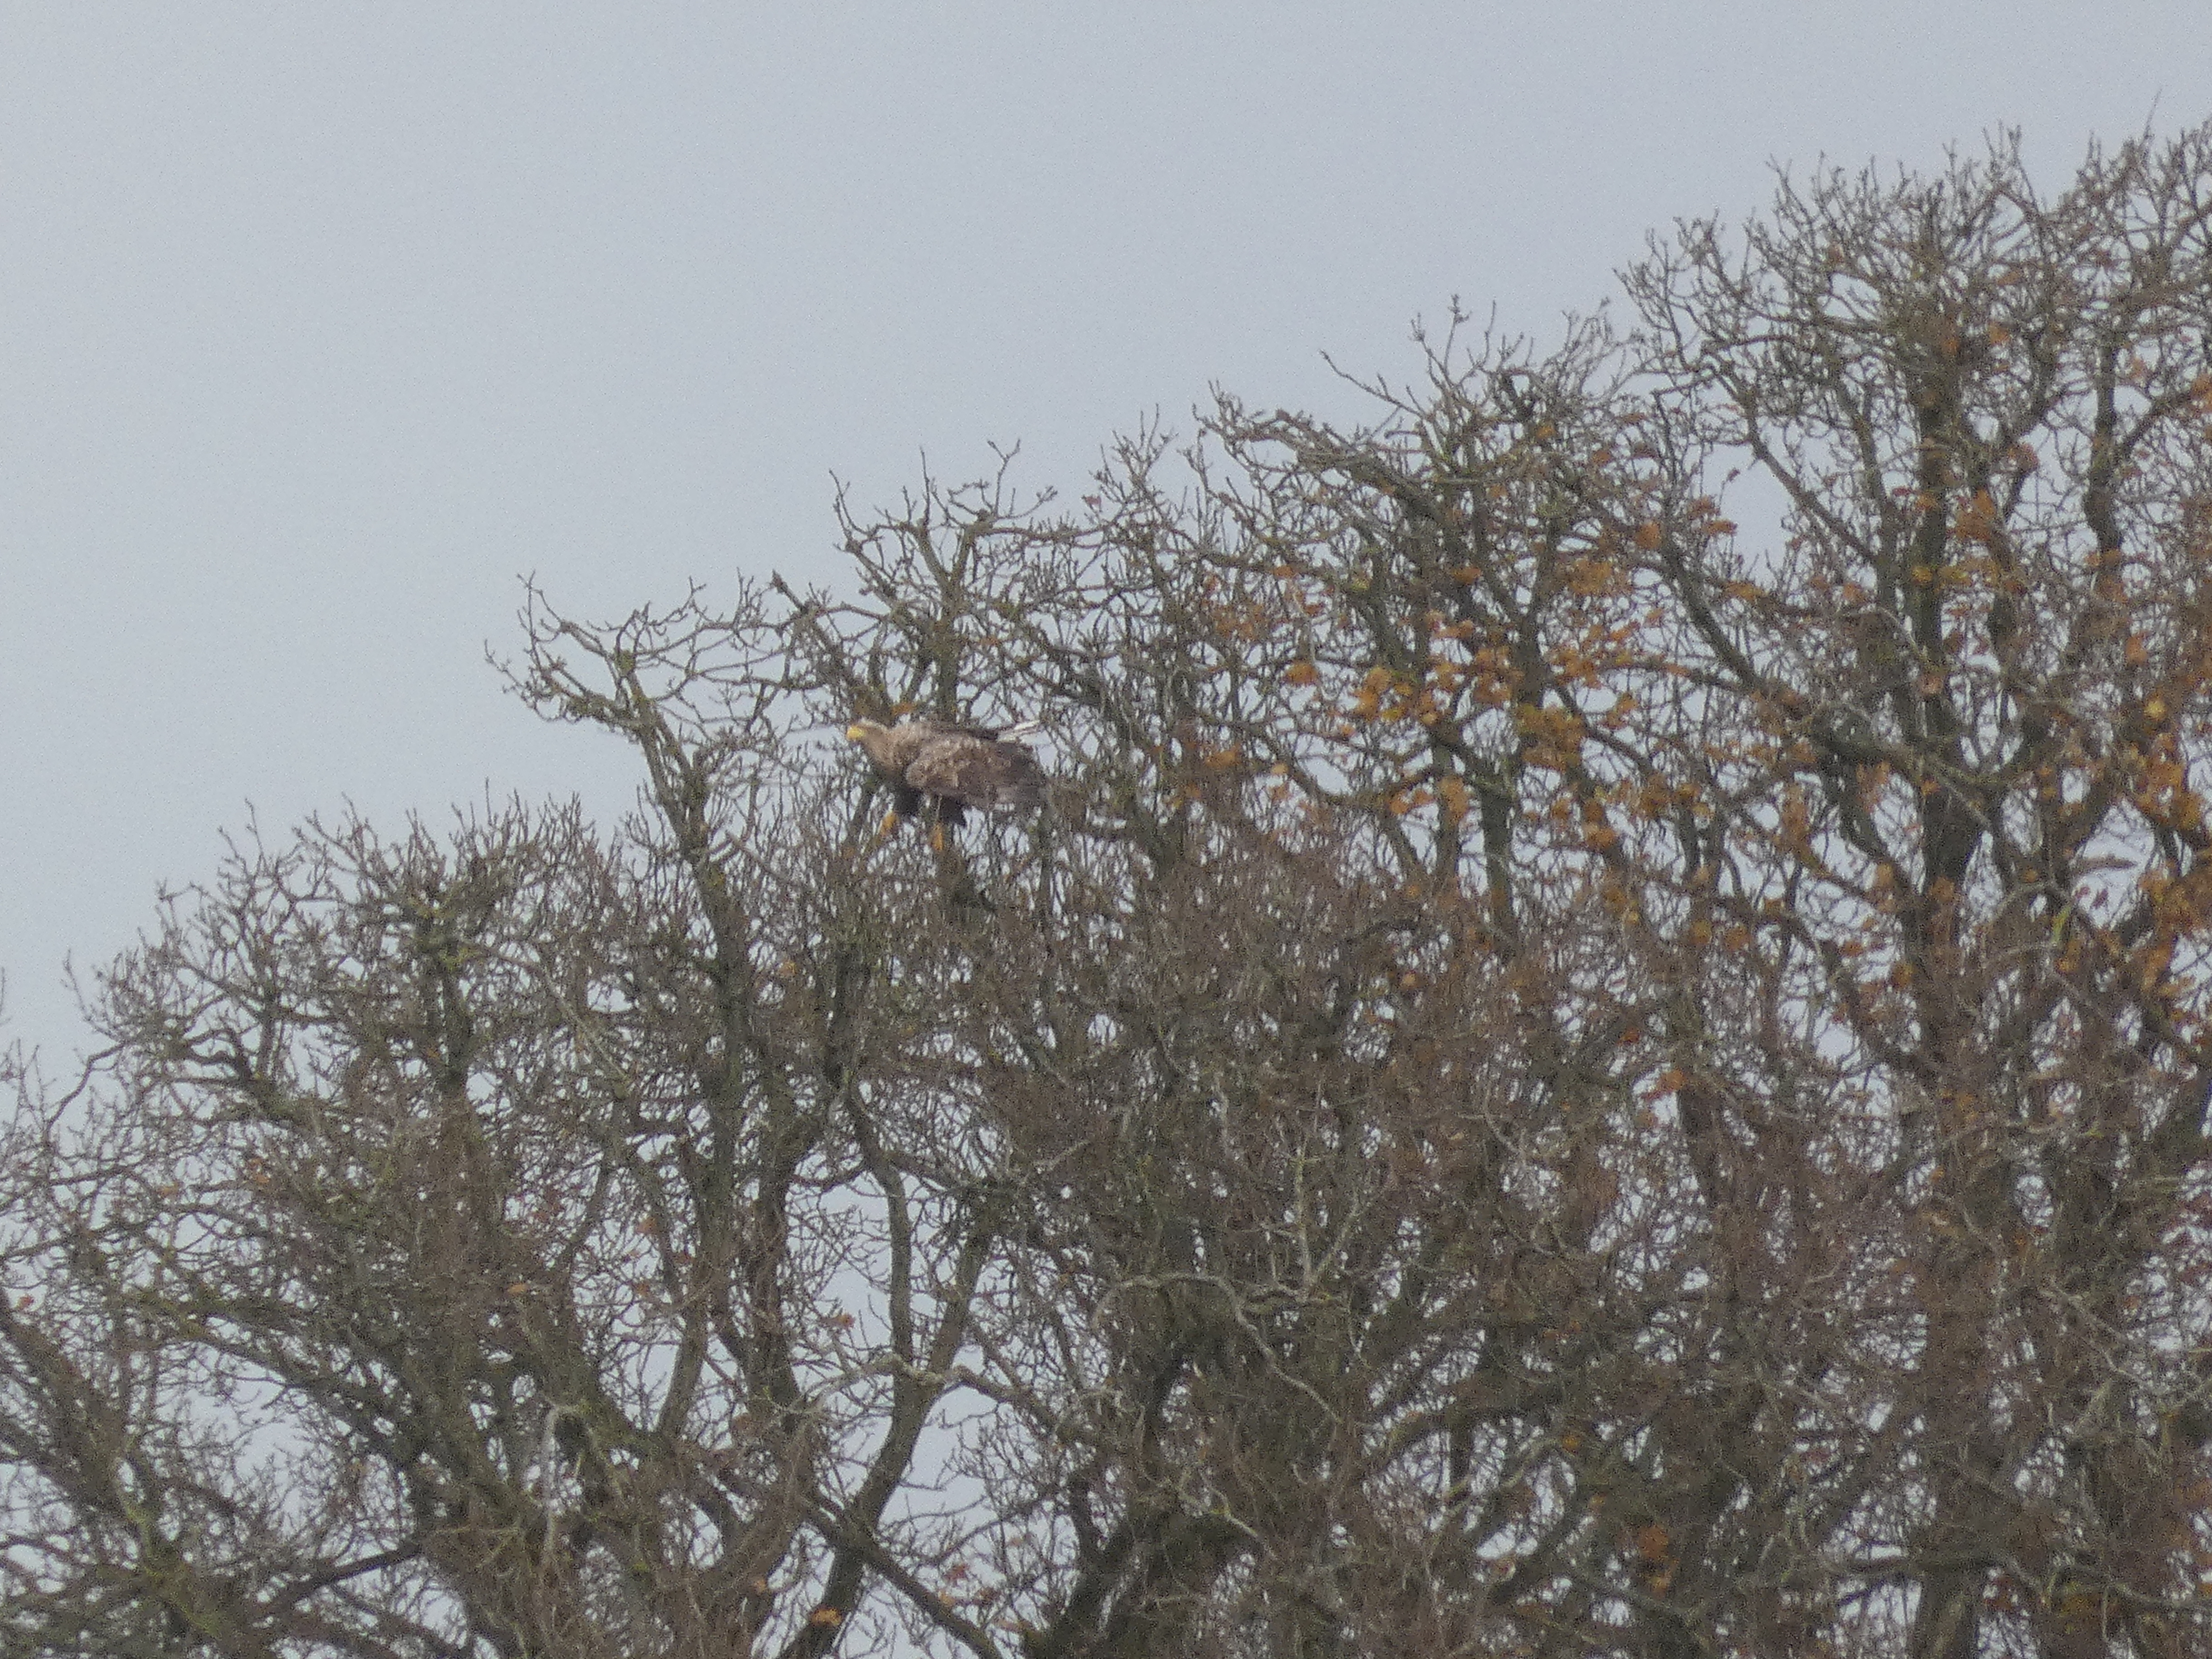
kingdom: Animalia
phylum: Chordata
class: Aves
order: Accipitriformes
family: Accipitridae
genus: Haliaeetus
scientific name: Haliaeetus albicilla
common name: Havørn
